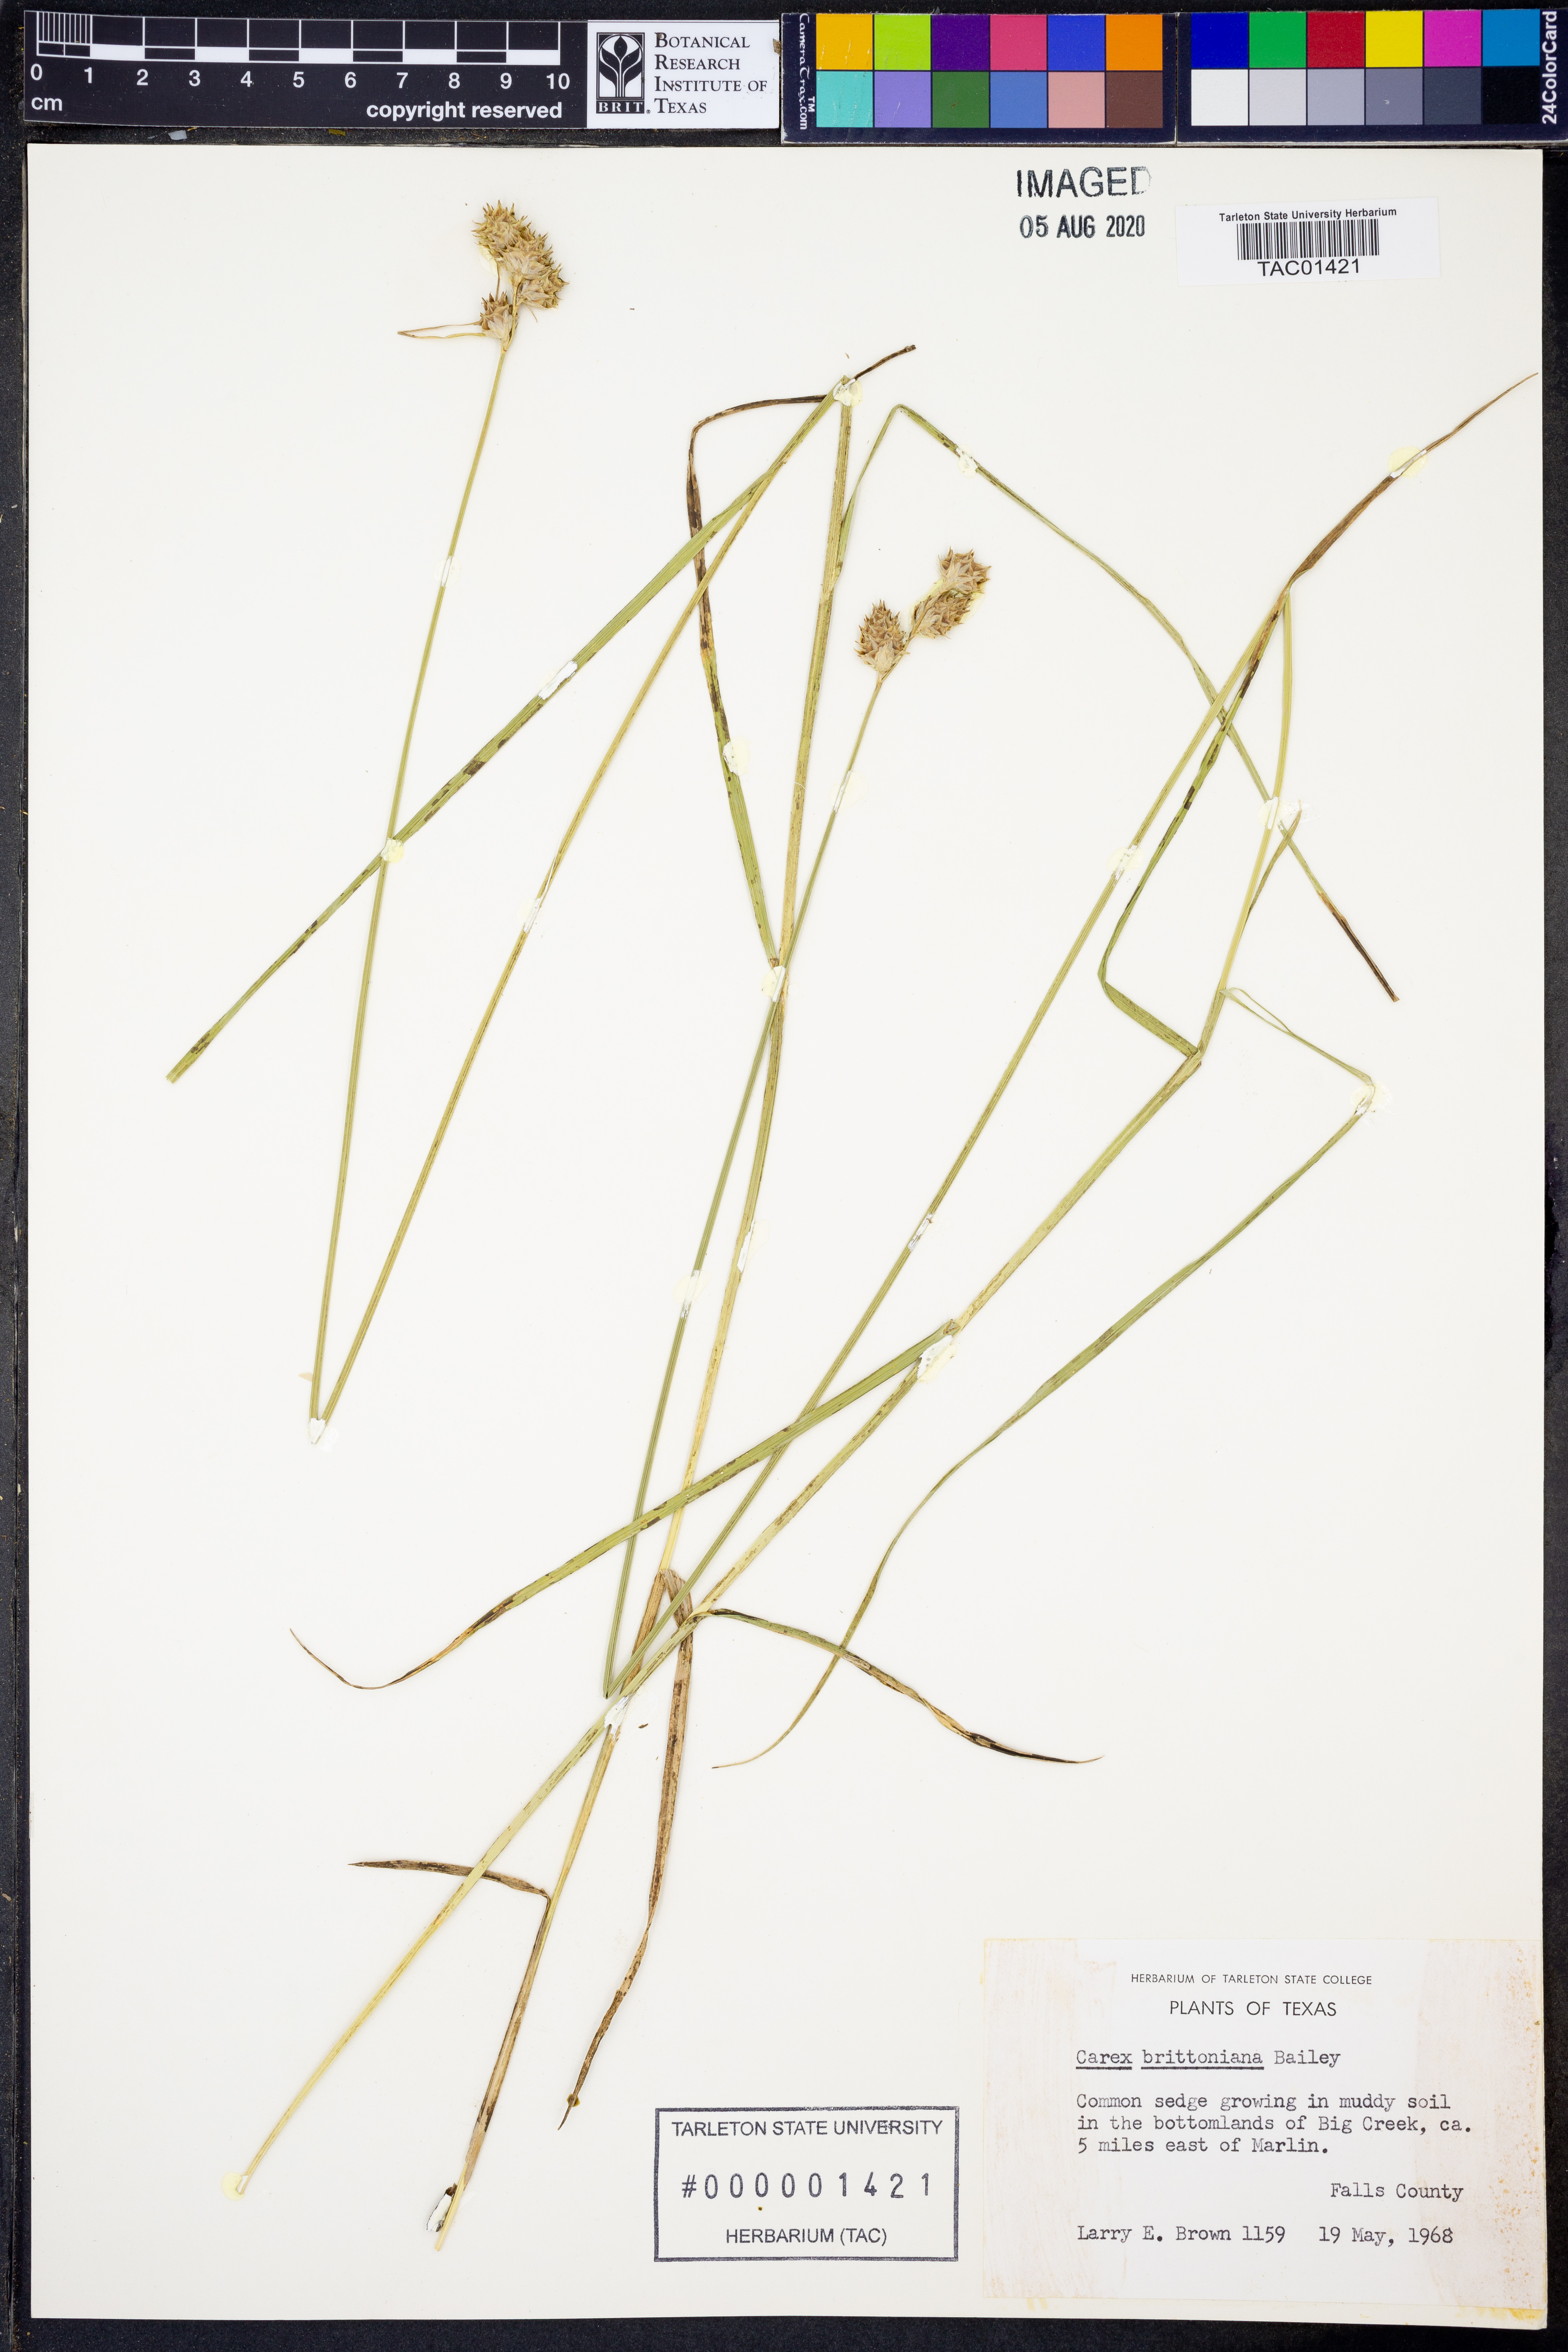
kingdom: Plantae
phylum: Tracheophyta
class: Liliopsida
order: Poales
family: Cyperaceae
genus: Carex
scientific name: Carex tetrastachya
